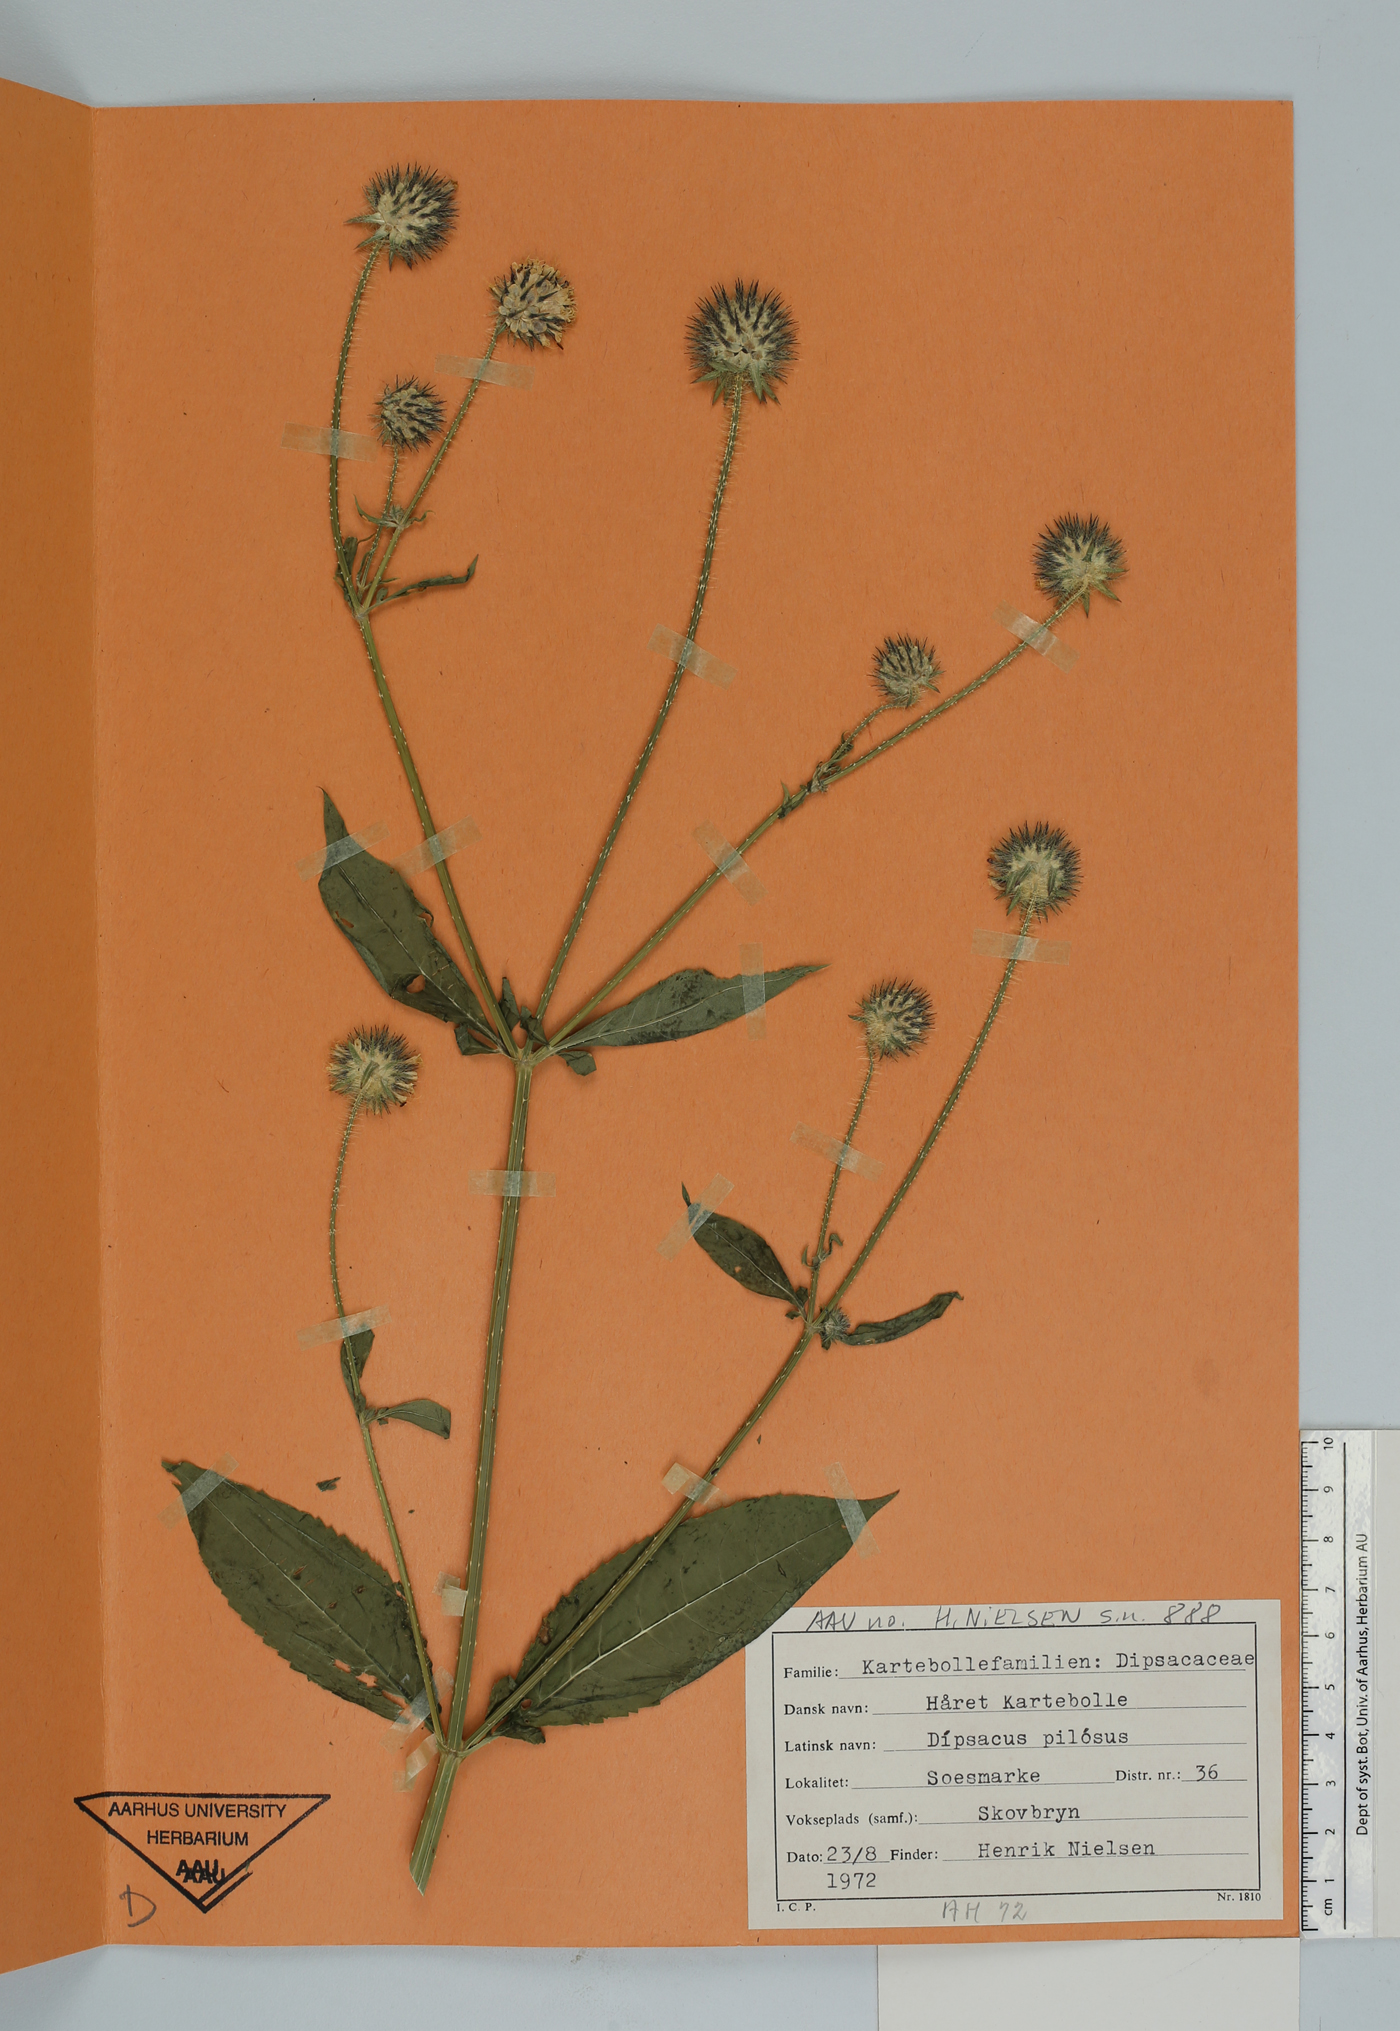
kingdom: Plantae
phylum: Tracheophyta
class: Magnoliopsida
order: Dipsacales
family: Caprifoliaceae
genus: Dipsacus
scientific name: Dipsacus pilosus
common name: Small teasel
